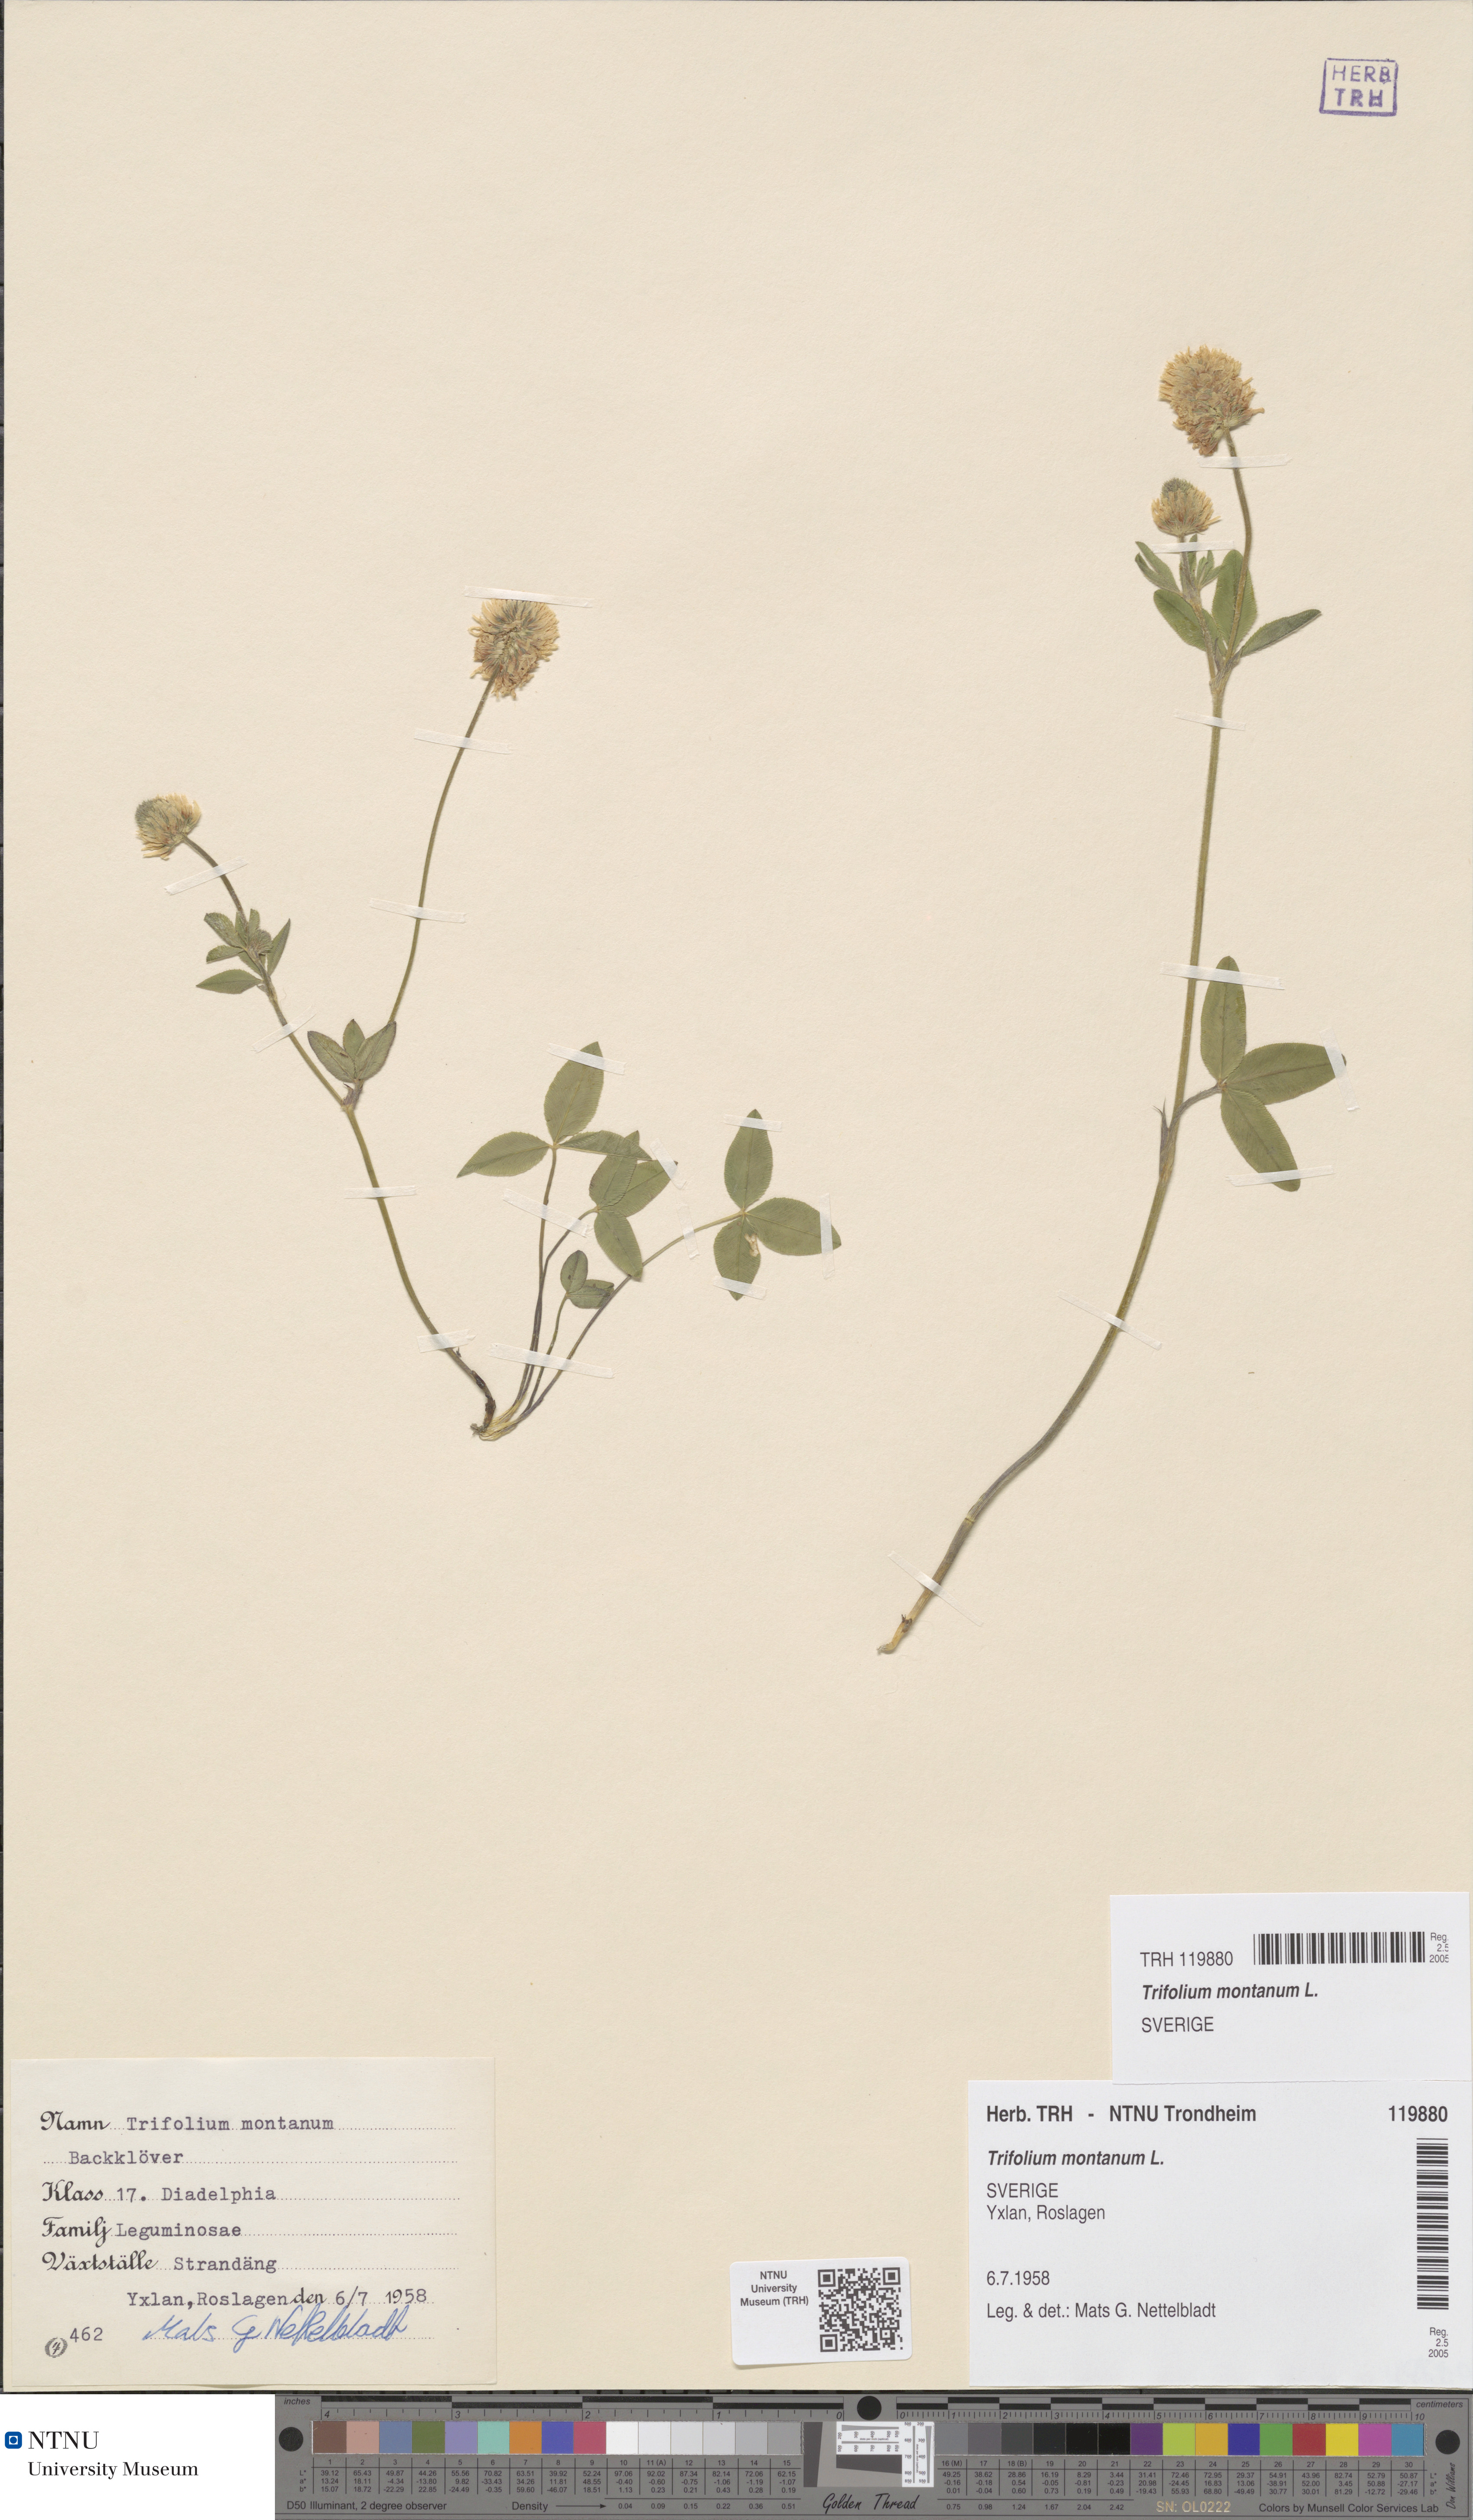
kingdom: Plantae
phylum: Tracheophyta
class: Magnoliopsida
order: Fabales
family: Fabaceae
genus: Trifolium
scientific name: Trifolium montanum
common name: Mountain clover
